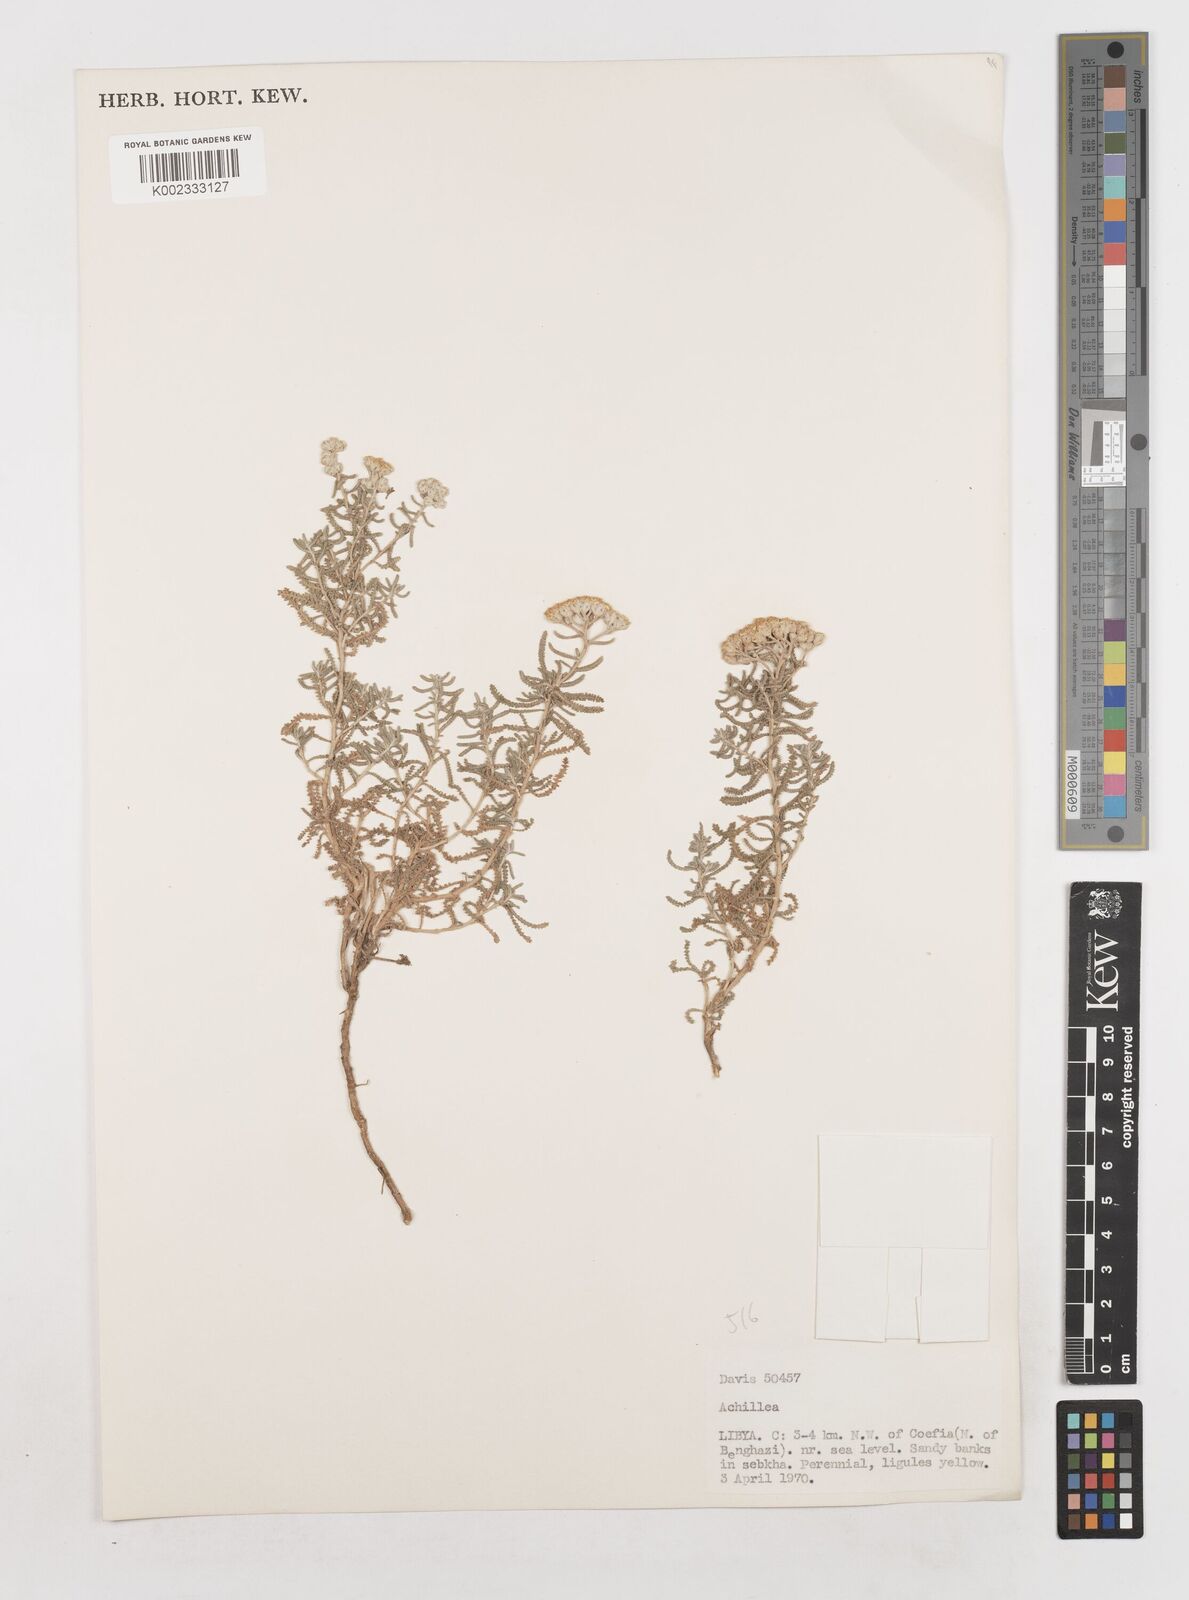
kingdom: Plantae
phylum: Tracheophyta
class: Magnoliopsida
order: Asterales
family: Asteraceae
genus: Achillea
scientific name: Achillea tenuifolia
